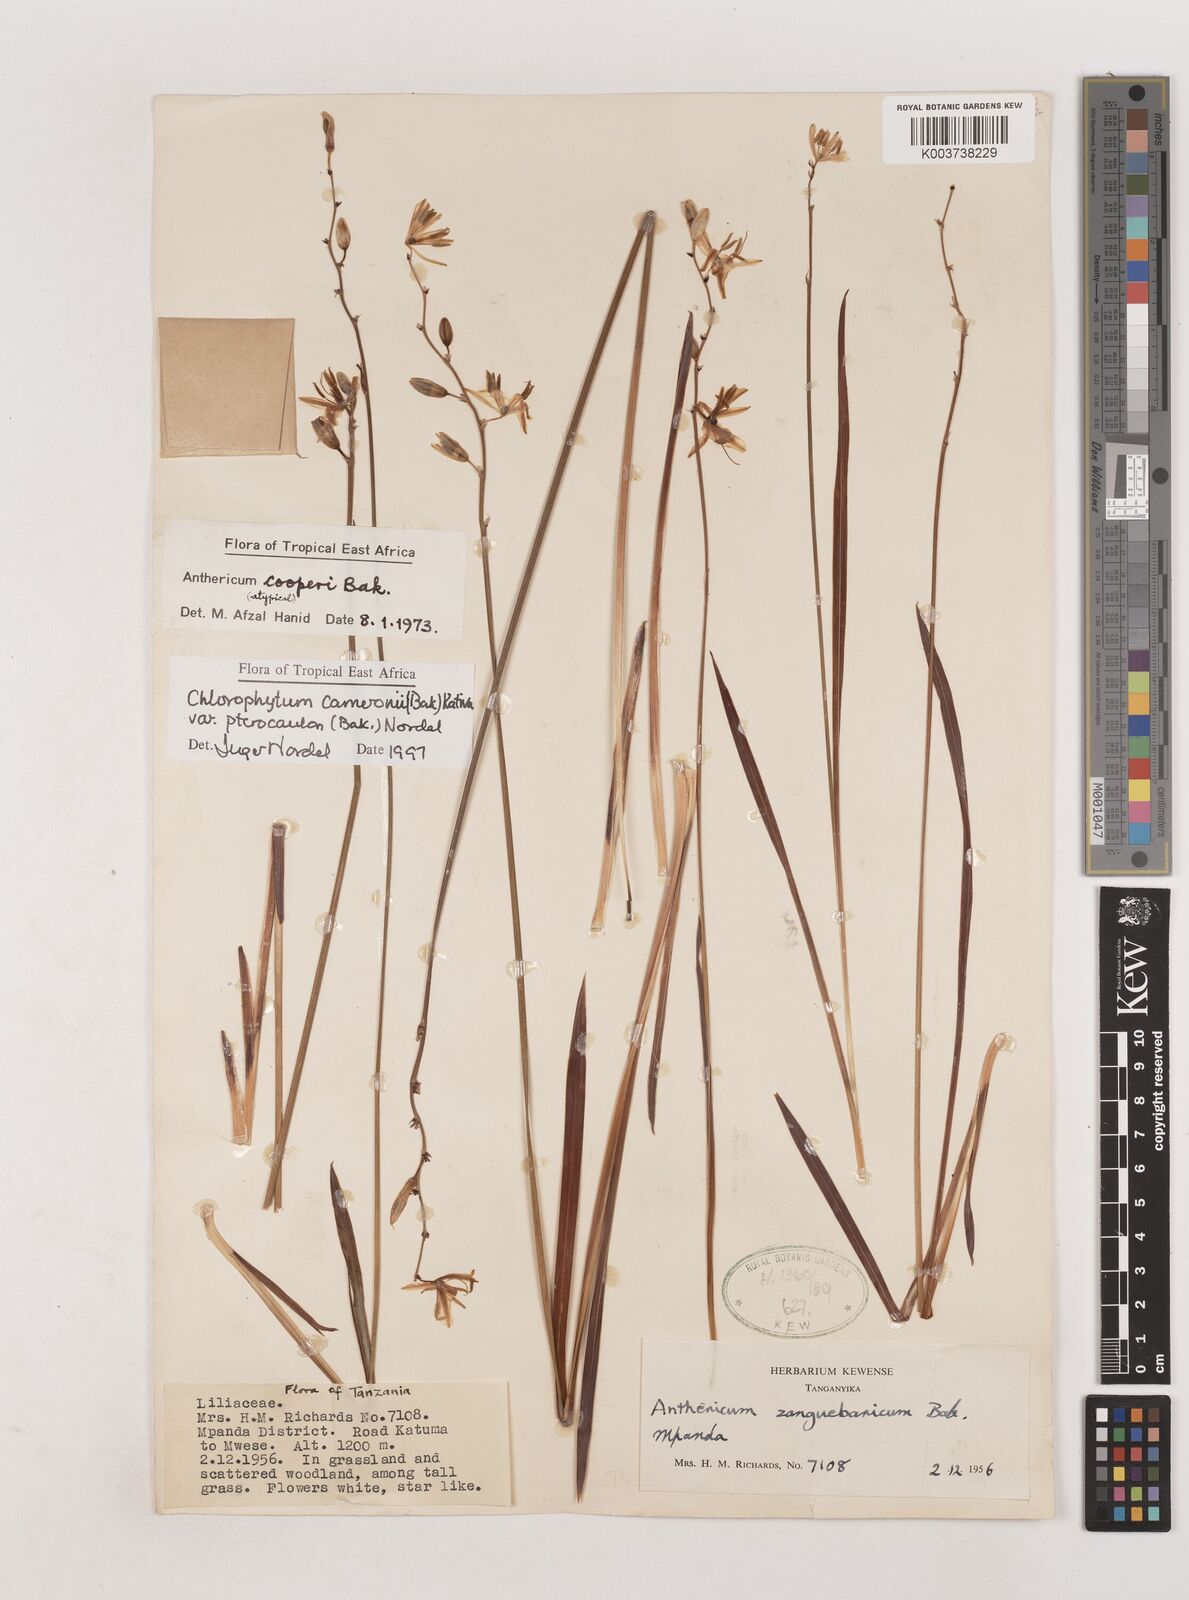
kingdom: Plantae
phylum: Tracheophyta
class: Liliopsida
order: Asparagales
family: Asparagaceae
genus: Chlorophytum
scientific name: Chlorophytum cameronii
